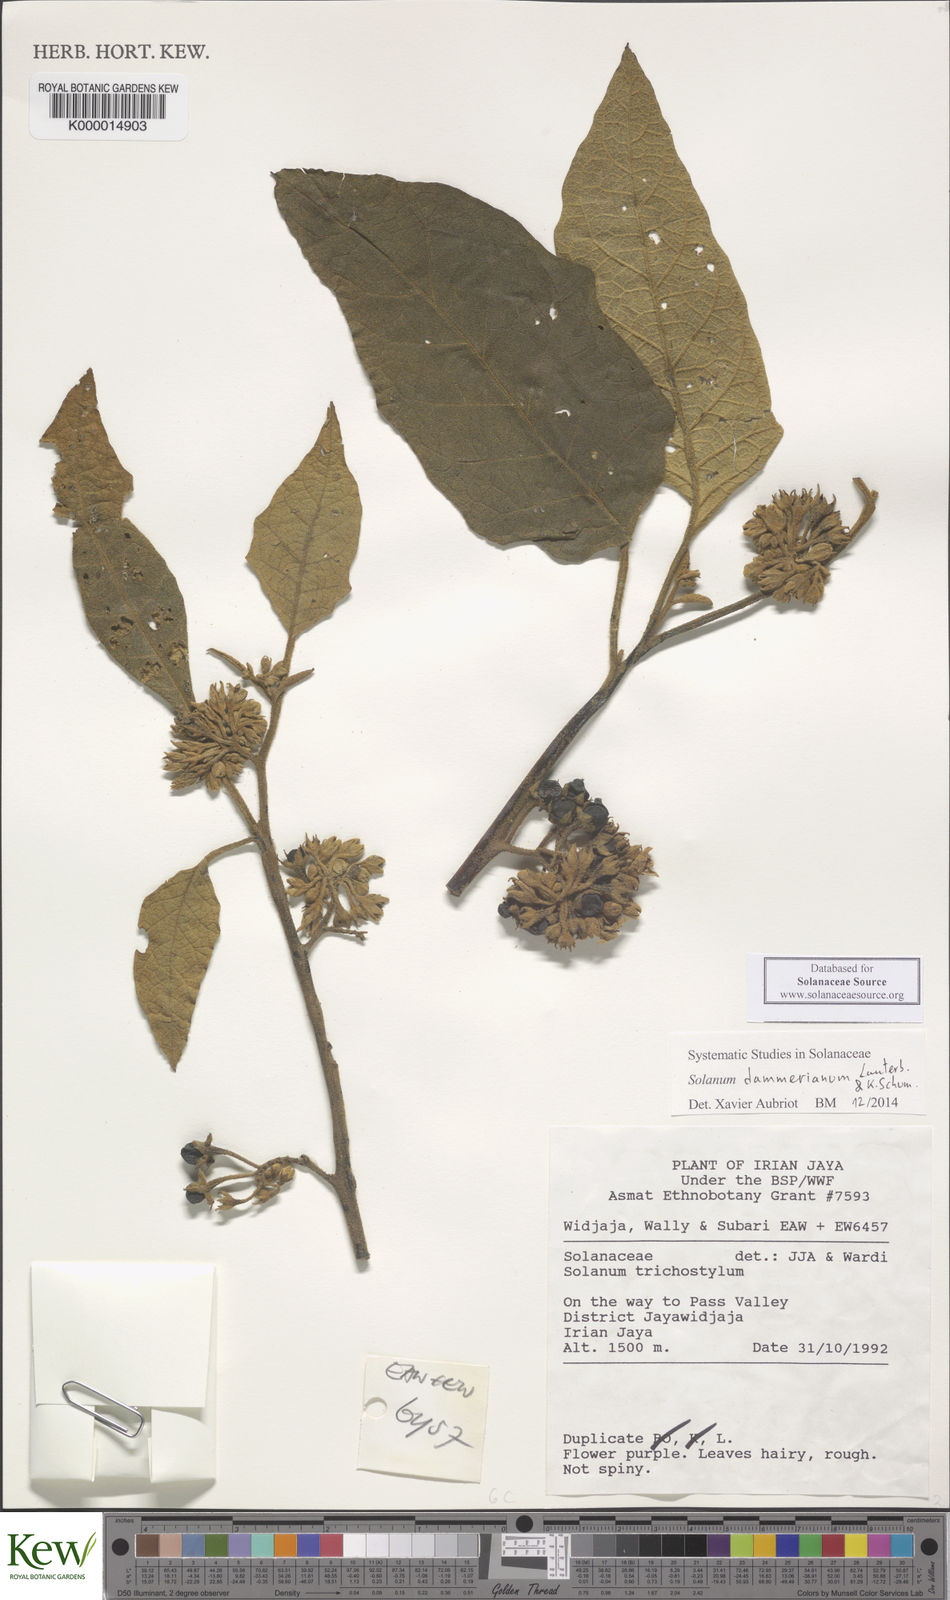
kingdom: Plantae
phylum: Tracheophyta
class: Magnoliopsida
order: Solanales
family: Solanaceae
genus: Solanum
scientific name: Solanum dammerianum
